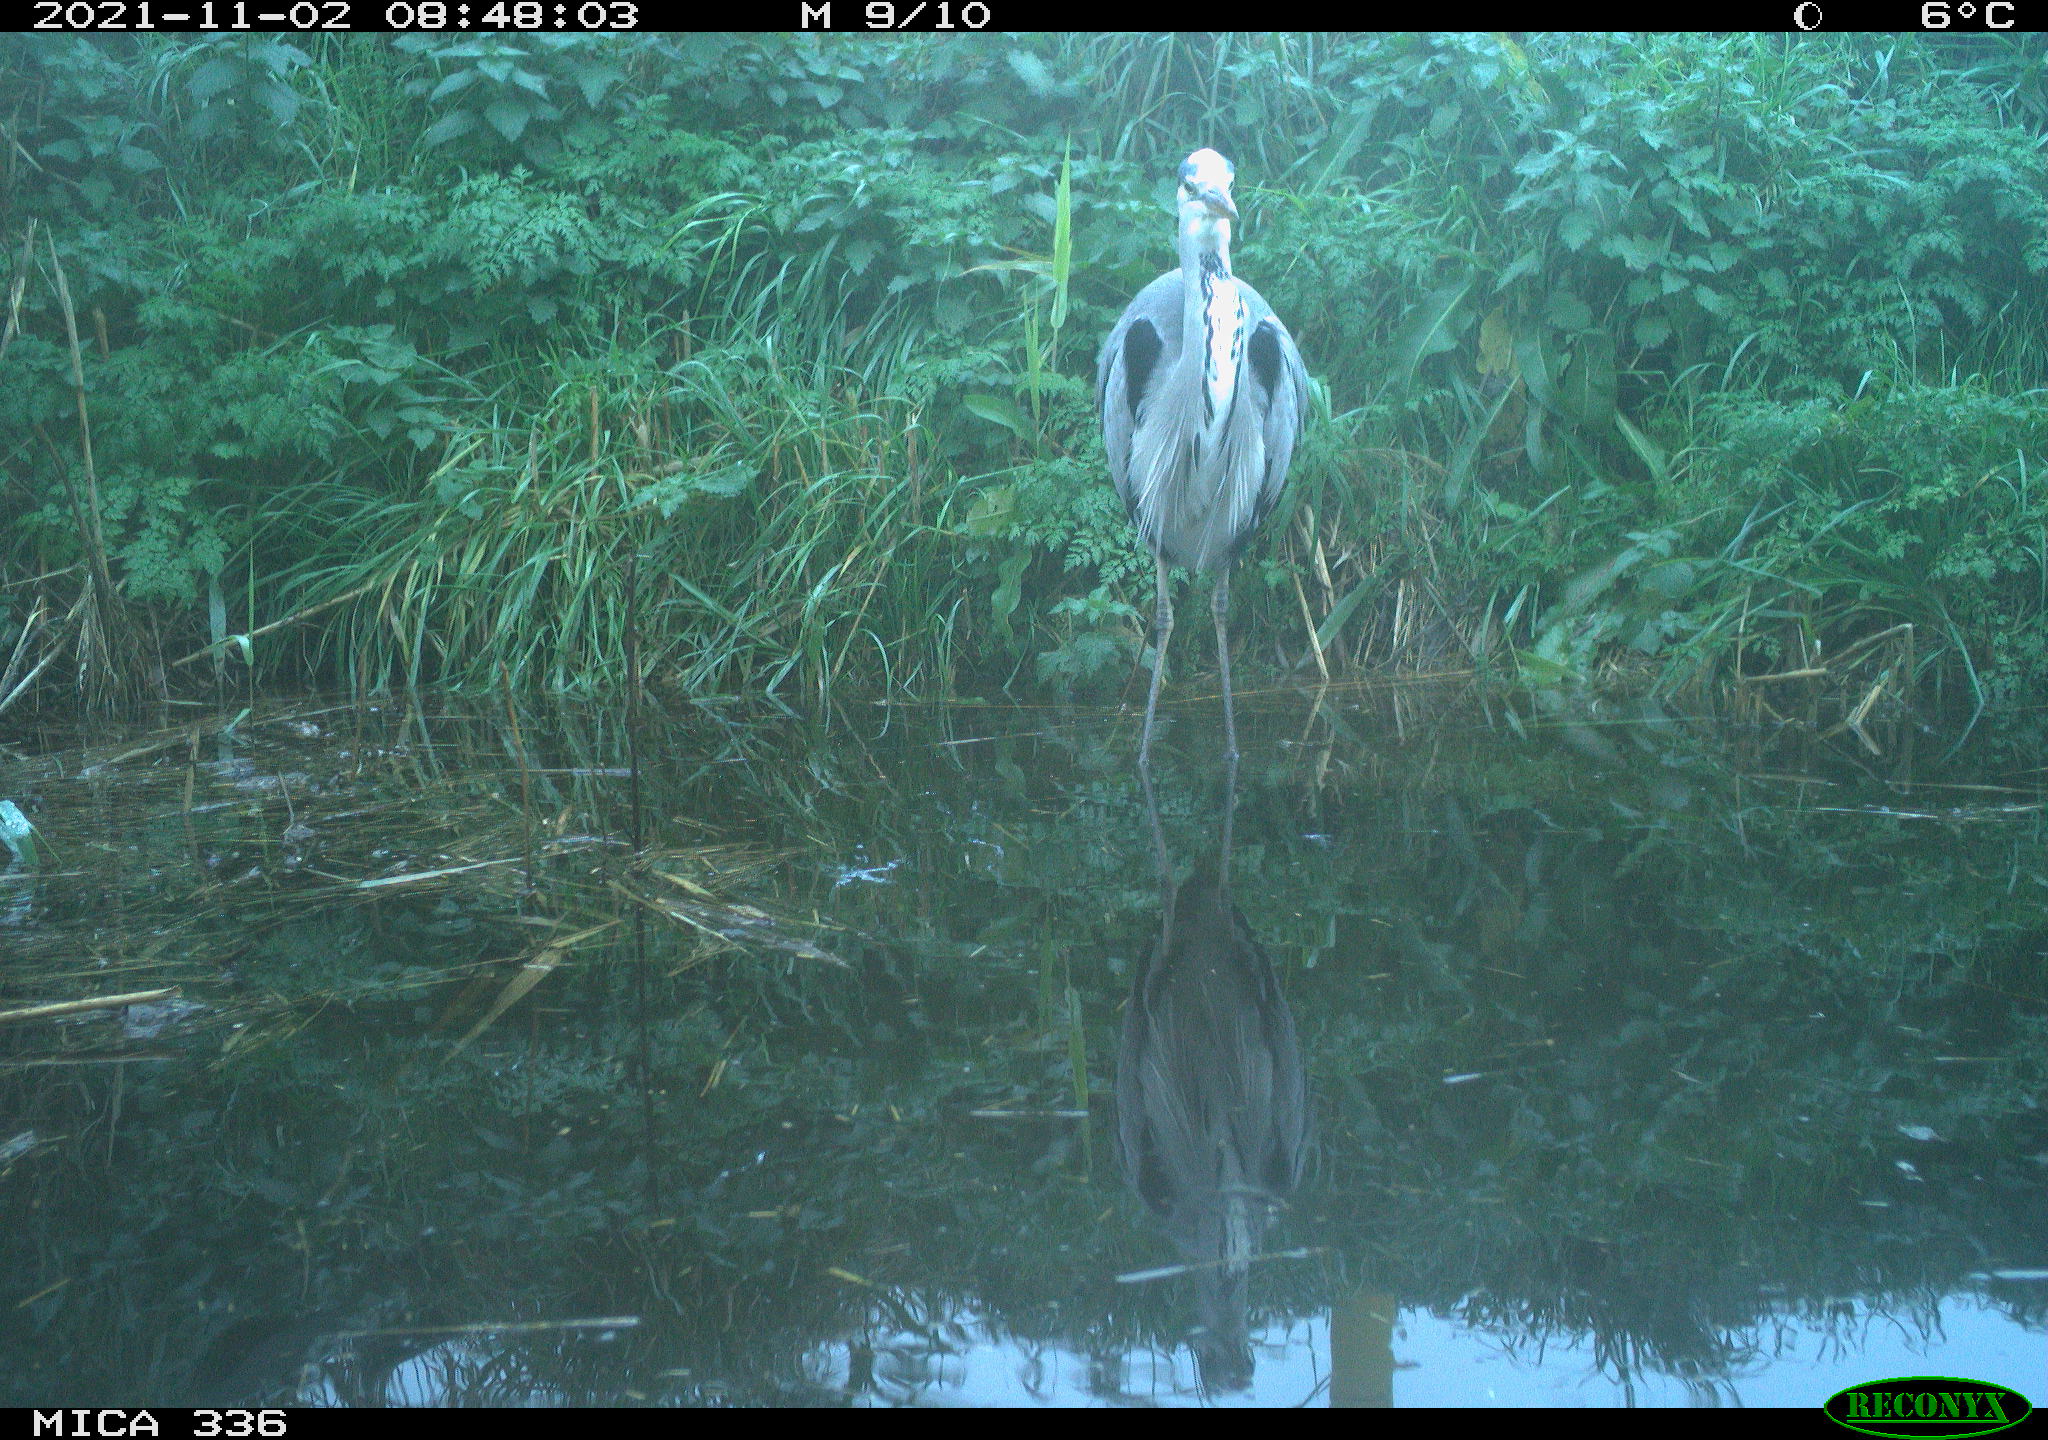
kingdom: Animalia
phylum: Chordata
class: Aves
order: Pelecaniformes
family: Ardeidae
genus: Ardea
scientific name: Ardea cinerea
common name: Grey heron
